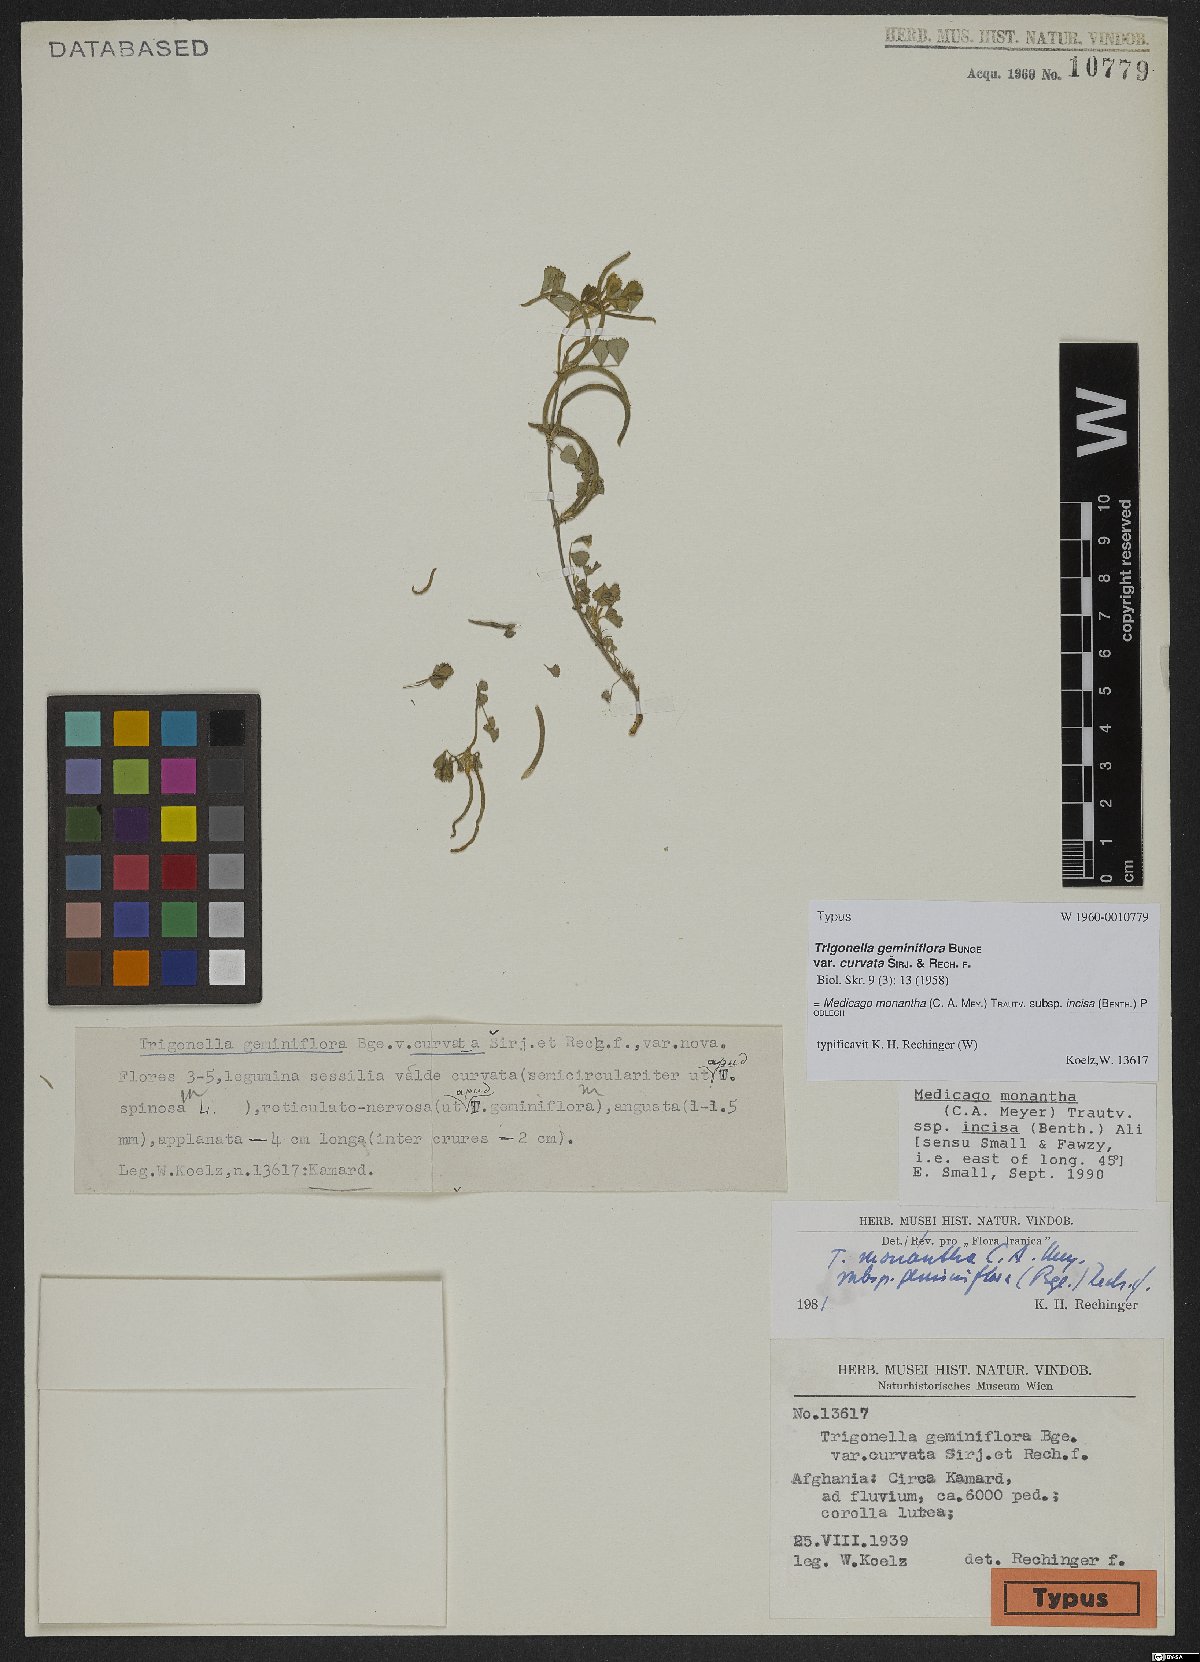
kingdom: Plantae
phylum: Tracheophyta
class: Magnoliopsida
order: Fabales
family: Fabaceae
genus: Medicago
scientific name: Medicago monantha
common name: Medick
